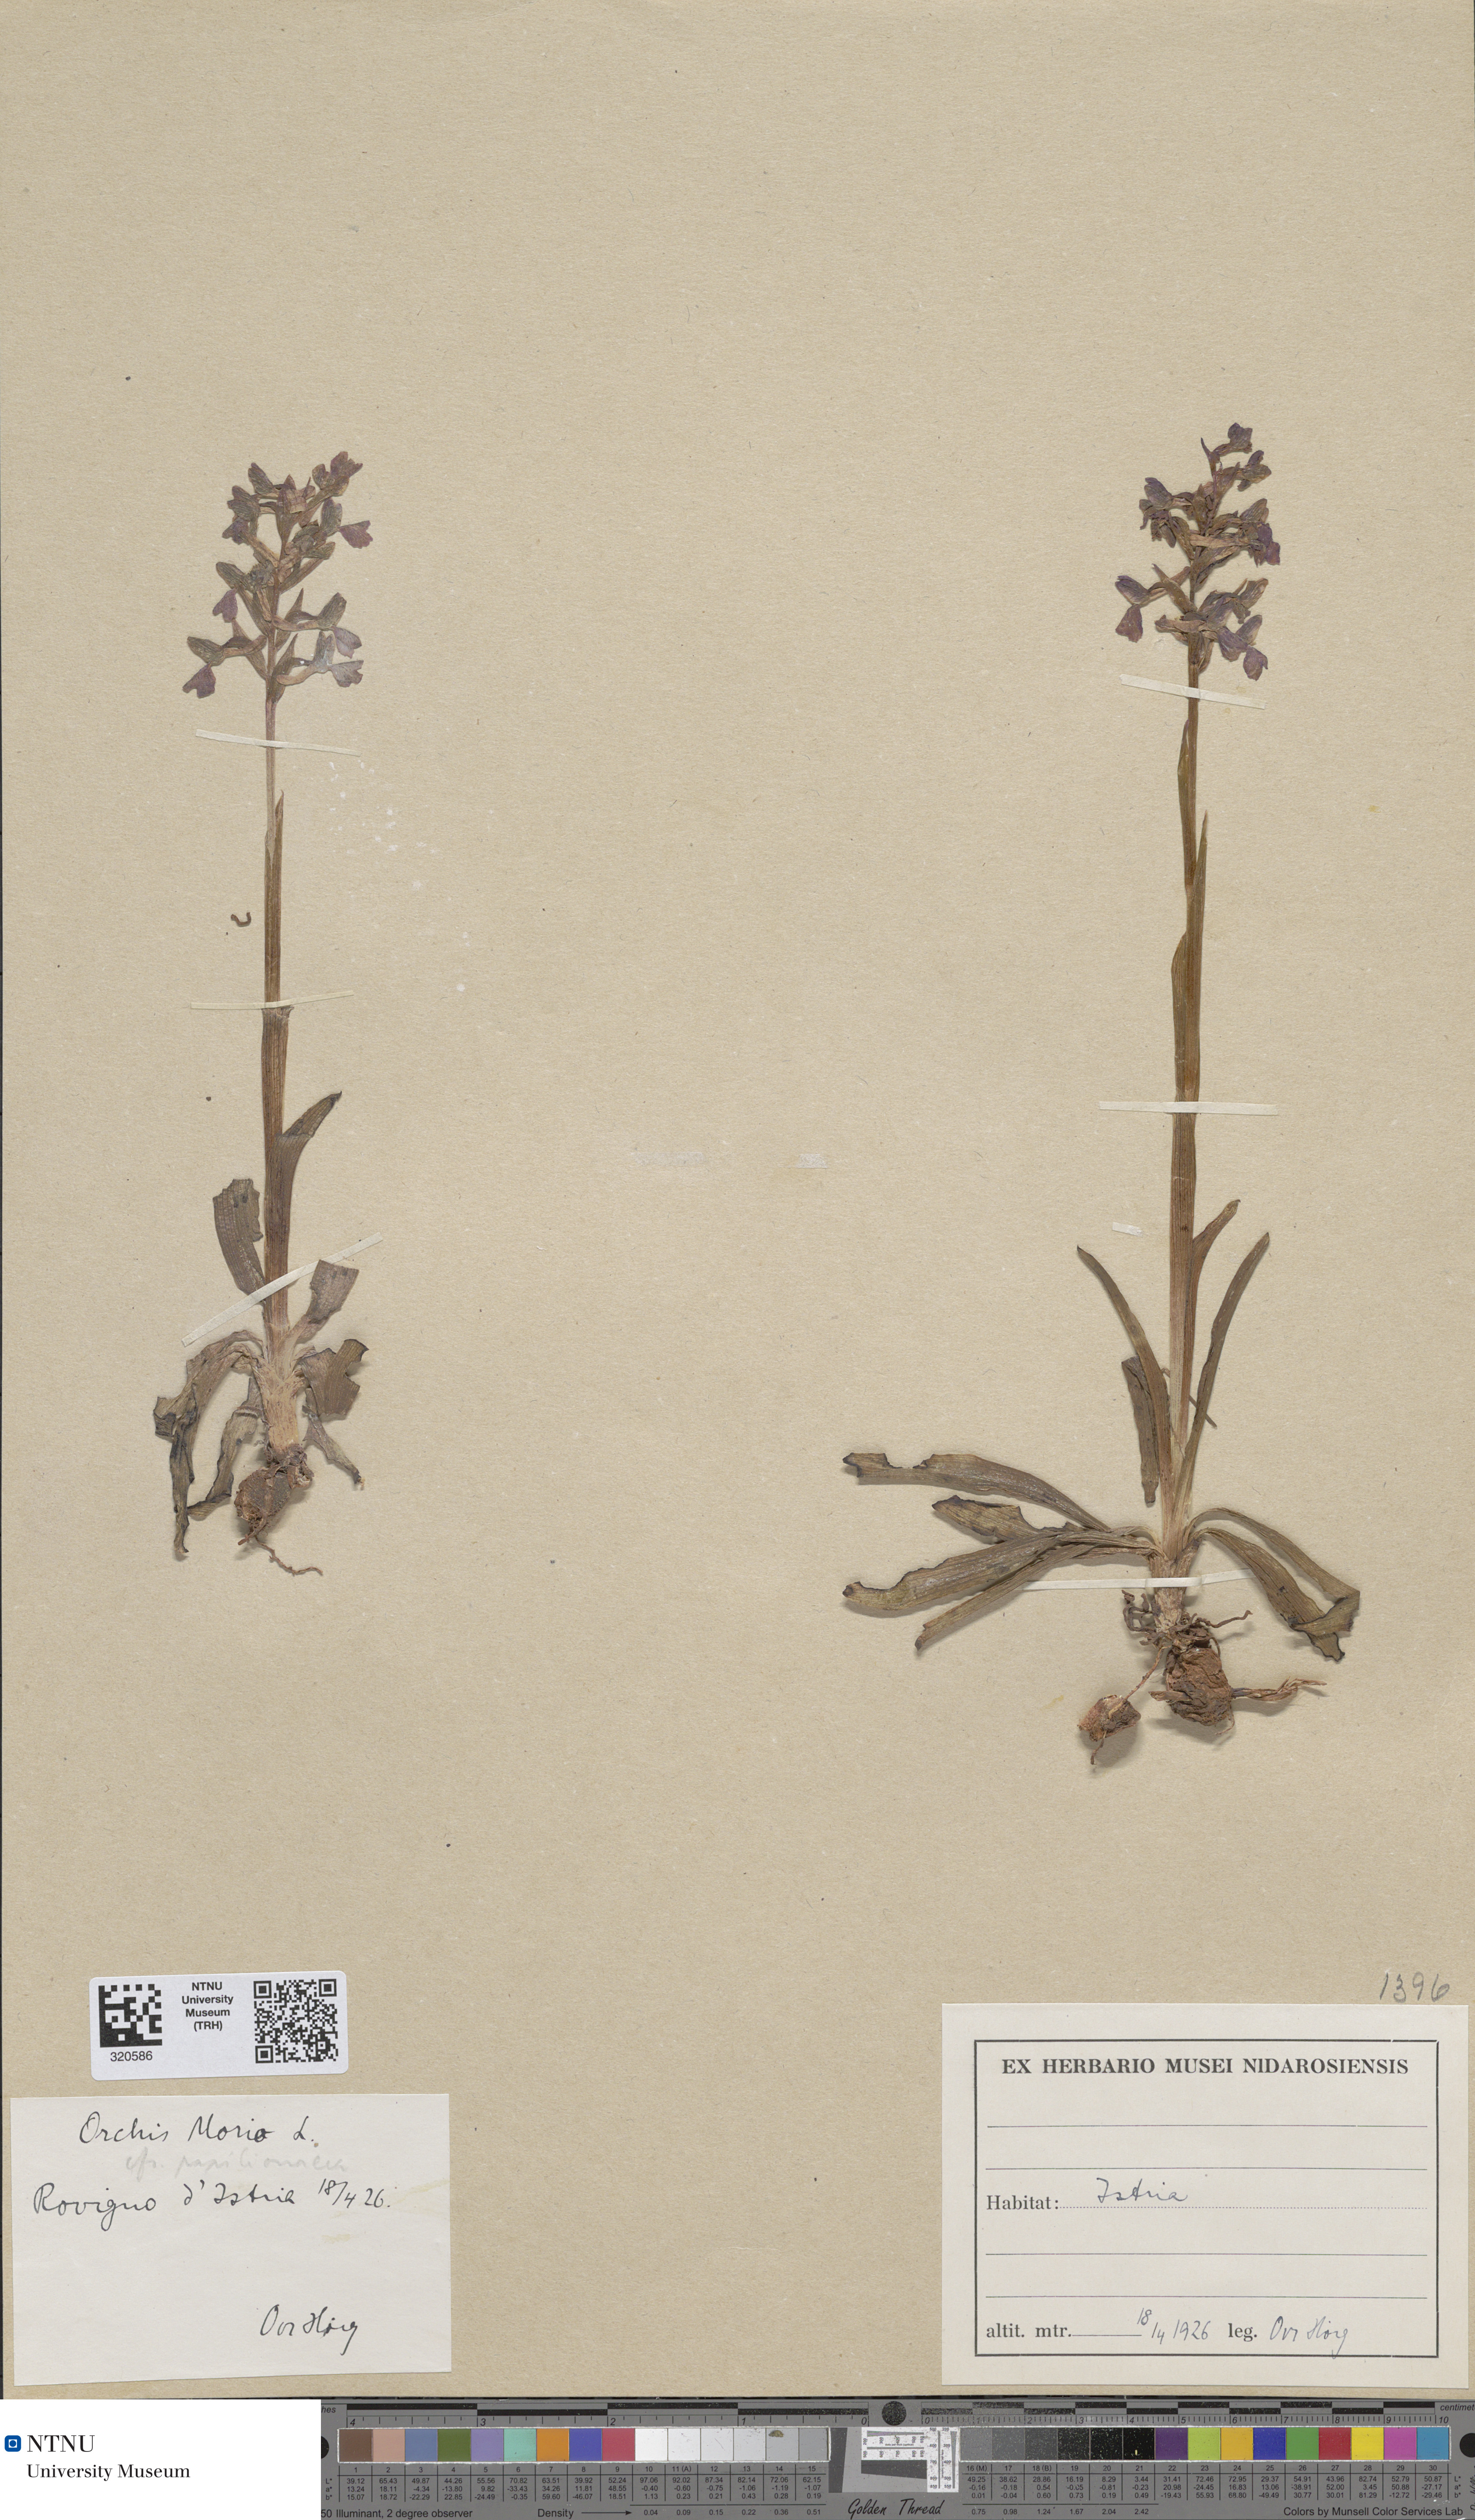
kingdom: Plantae
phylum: Tracheophyta
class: Liliopsida
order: Asparagales
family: Orchidaceae
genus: Anacamptis
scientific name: Anacamptis morio
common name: Green-winged orchid
